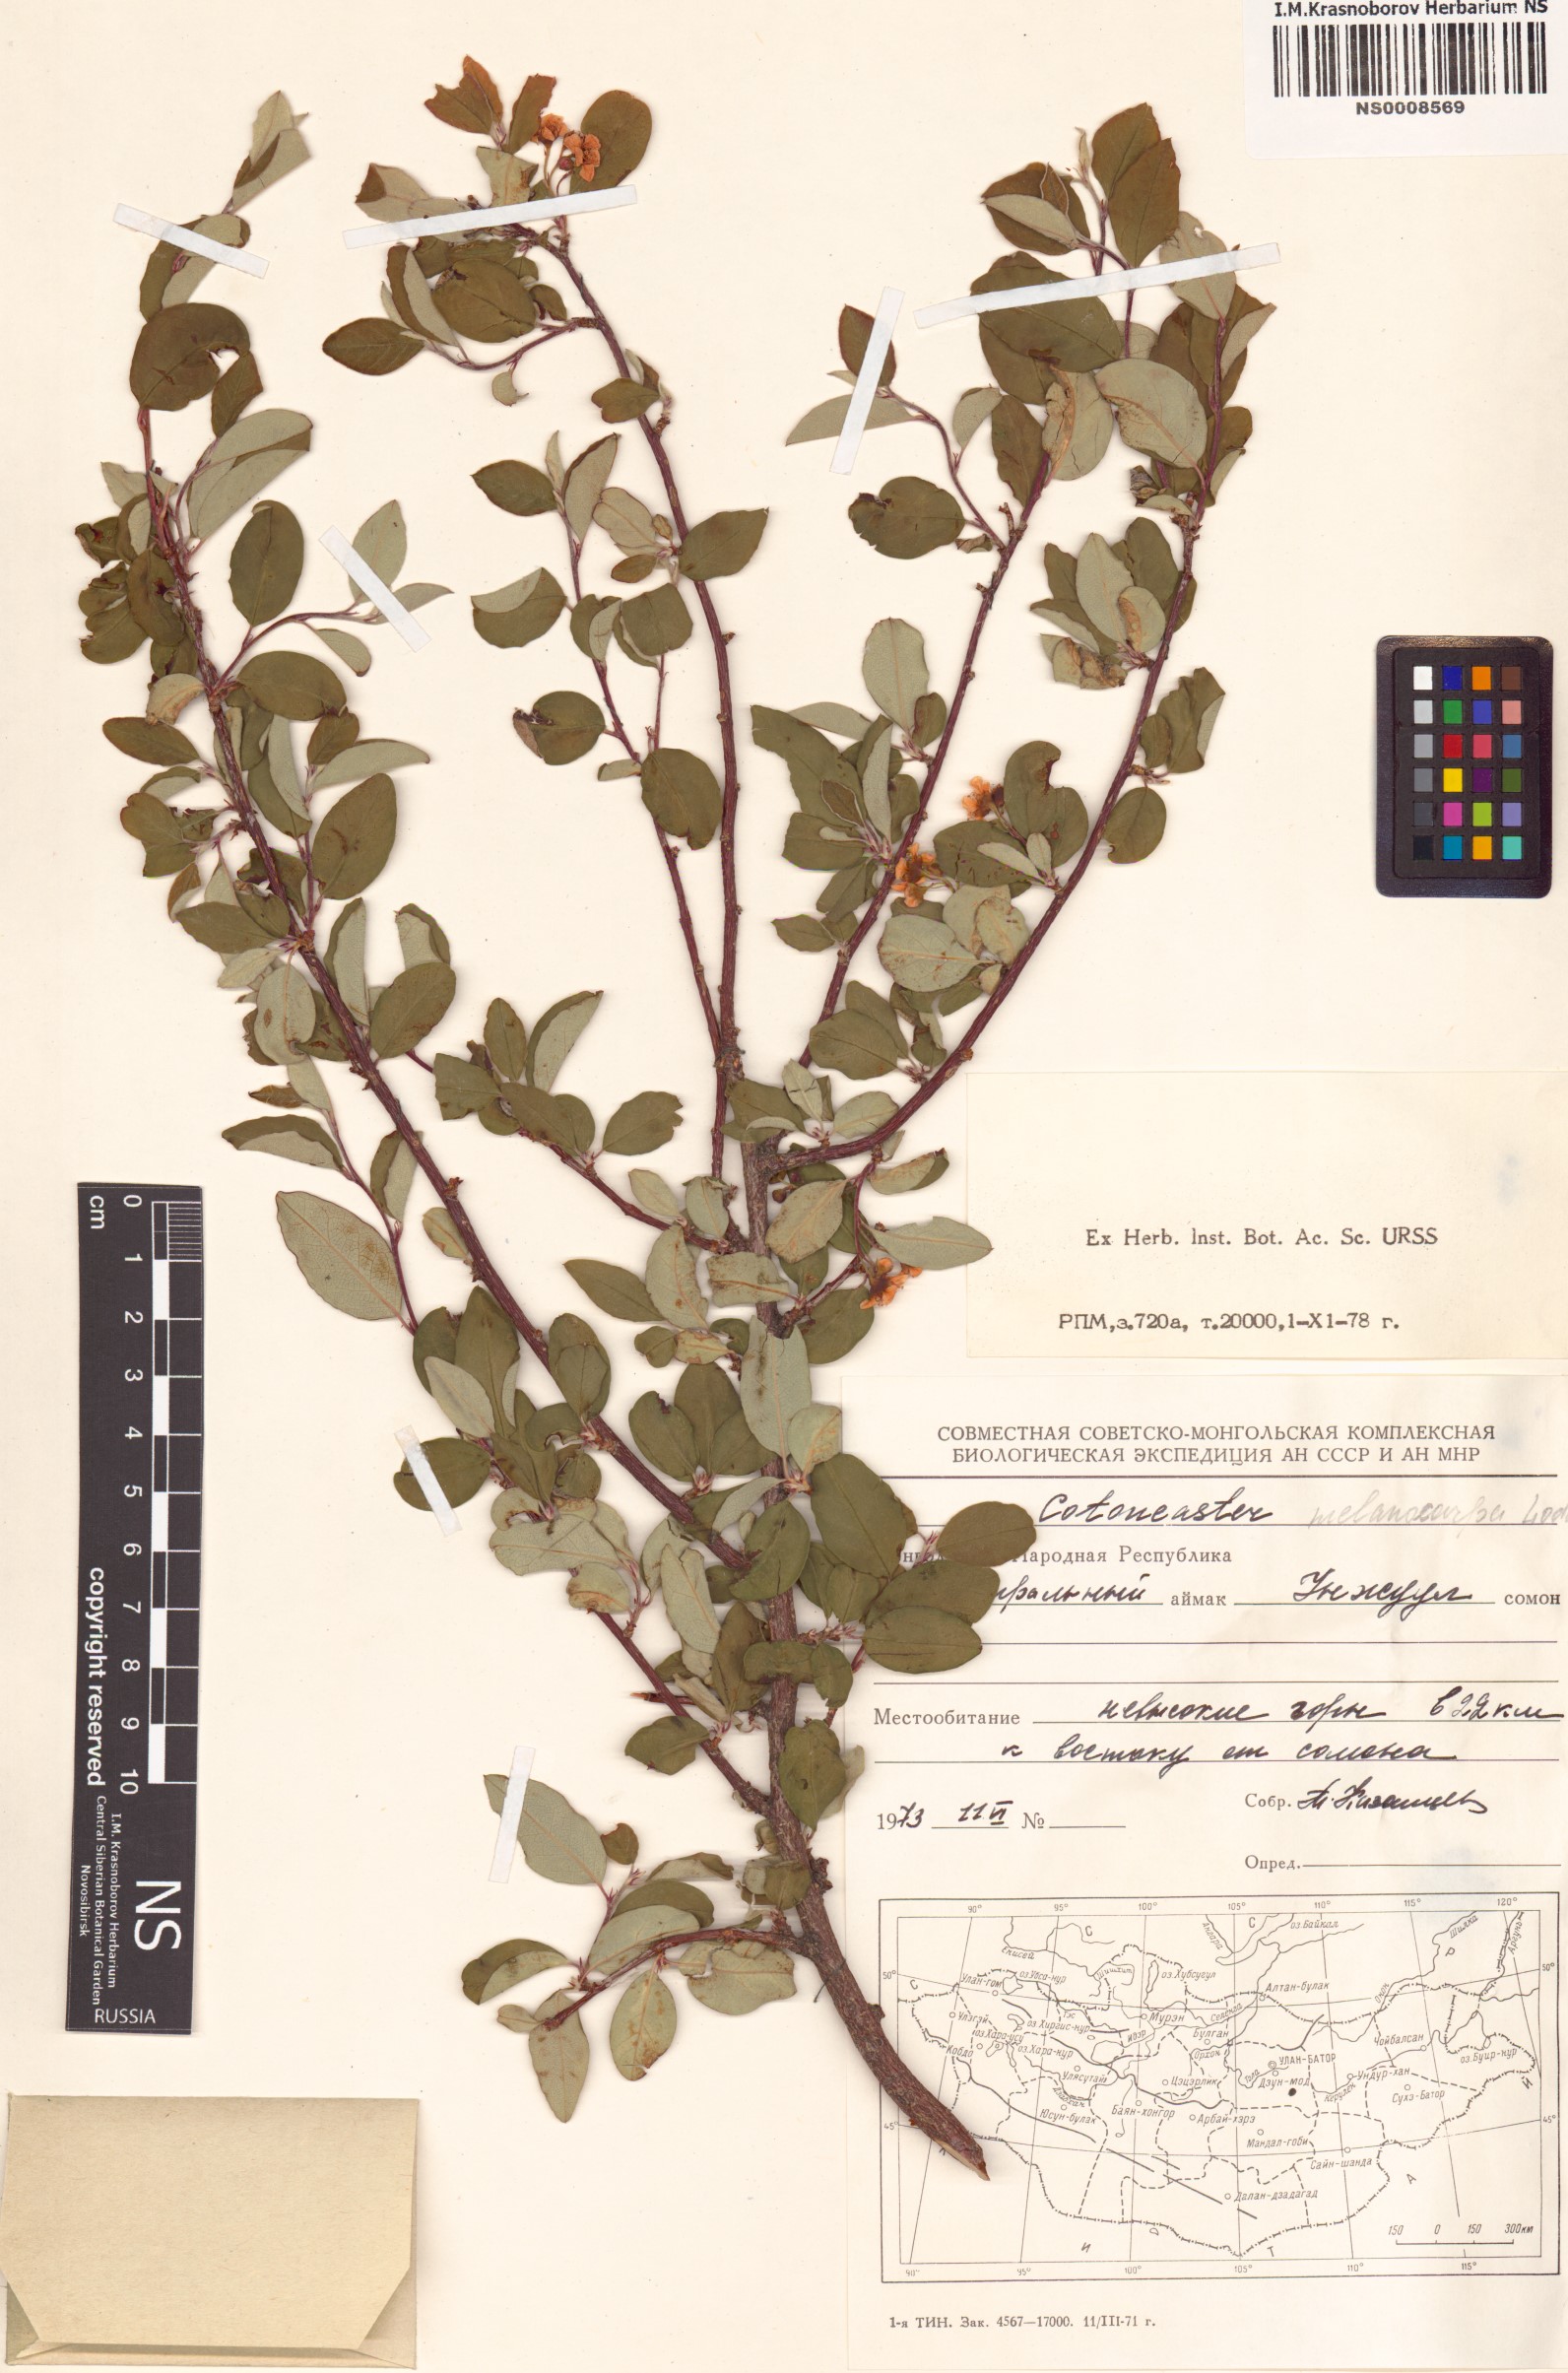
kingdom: Plantae
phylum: Tracheophyta
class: Magnoliopsida
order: Rosales
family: Rosaceae
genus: Cotoneaster
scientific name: Cotoneaster melanocarpus
